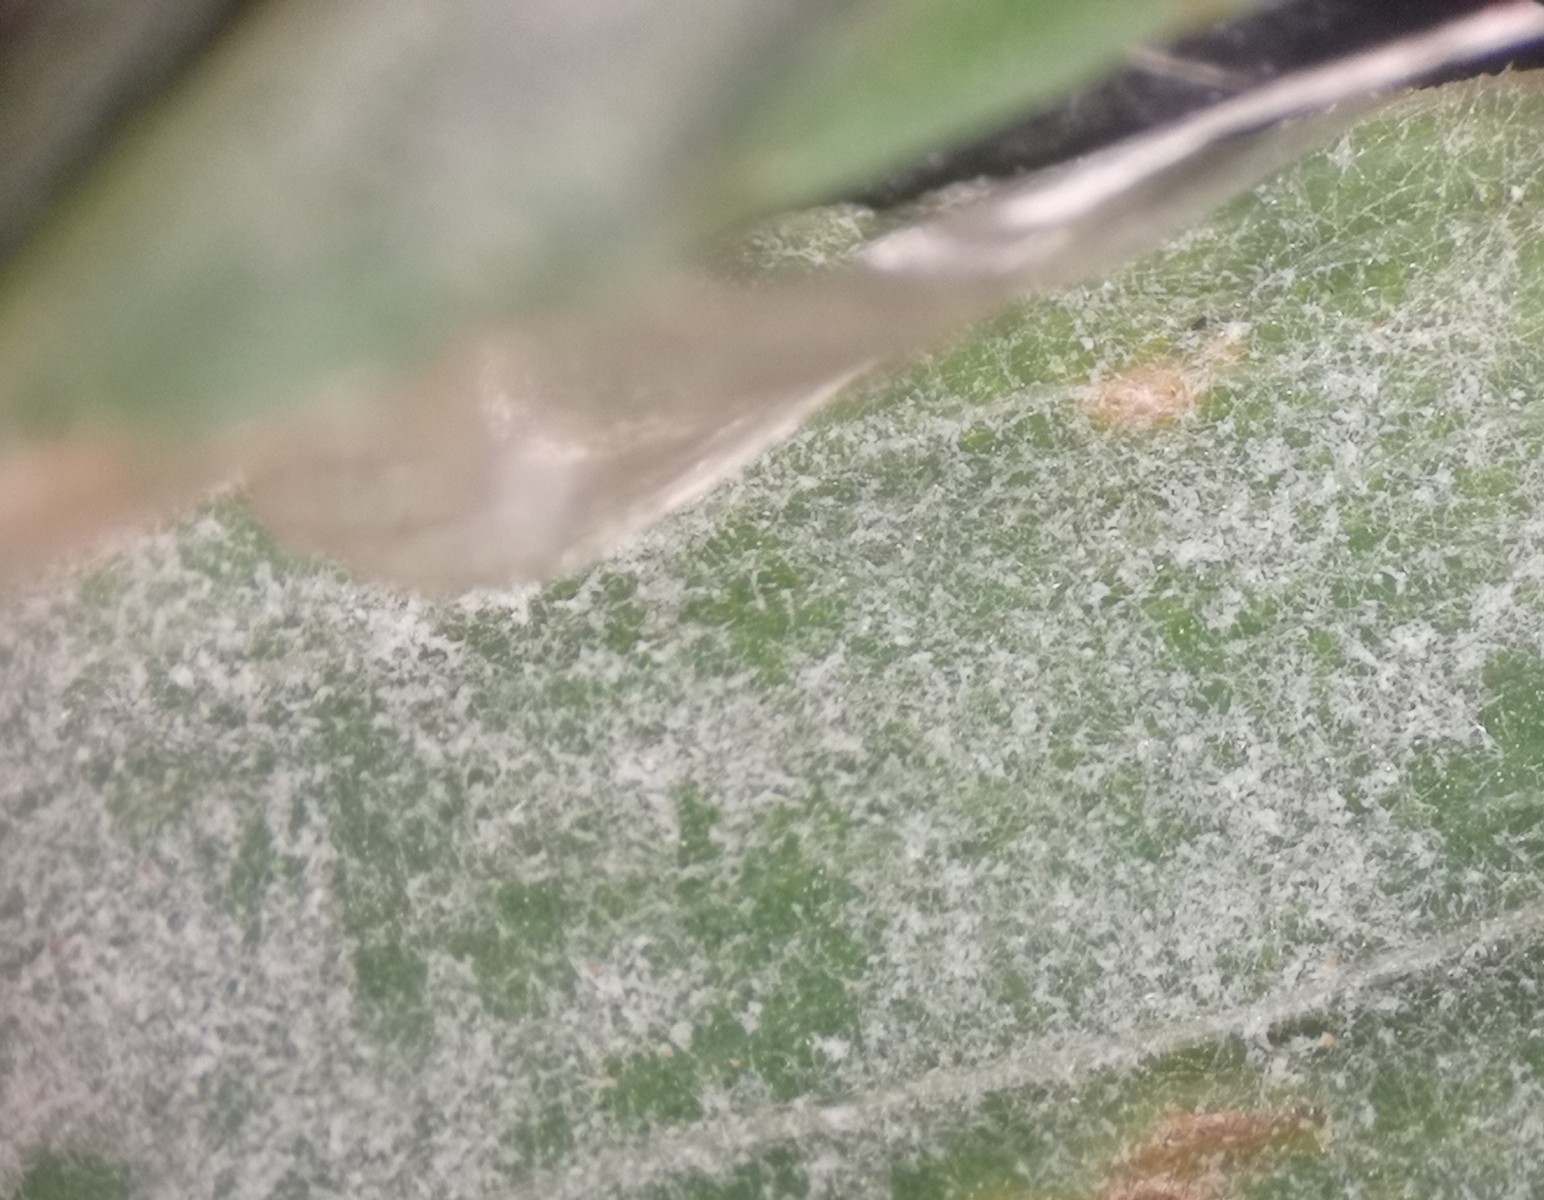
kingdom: Fungi
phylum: Ascomycota
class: Leotiomycetes
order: Helotiales
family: Erysiphaceae
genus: Erysiphe
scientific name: Erysiphe polygoni
